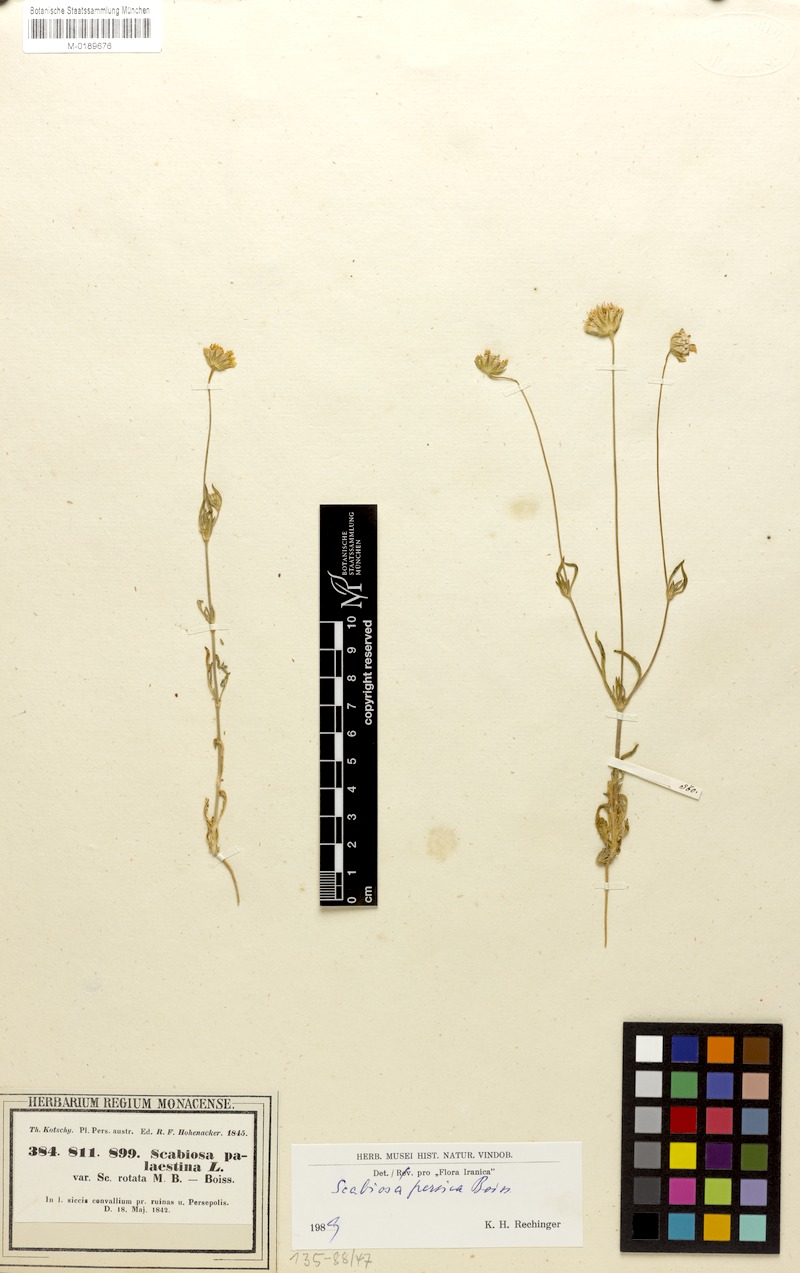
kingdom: Plantae
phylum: Tracheophyta
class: Magnoliopsida
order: Dipsacales
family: Caprifoliaceae
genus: Lomelosia
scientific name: Lomelosia persica
